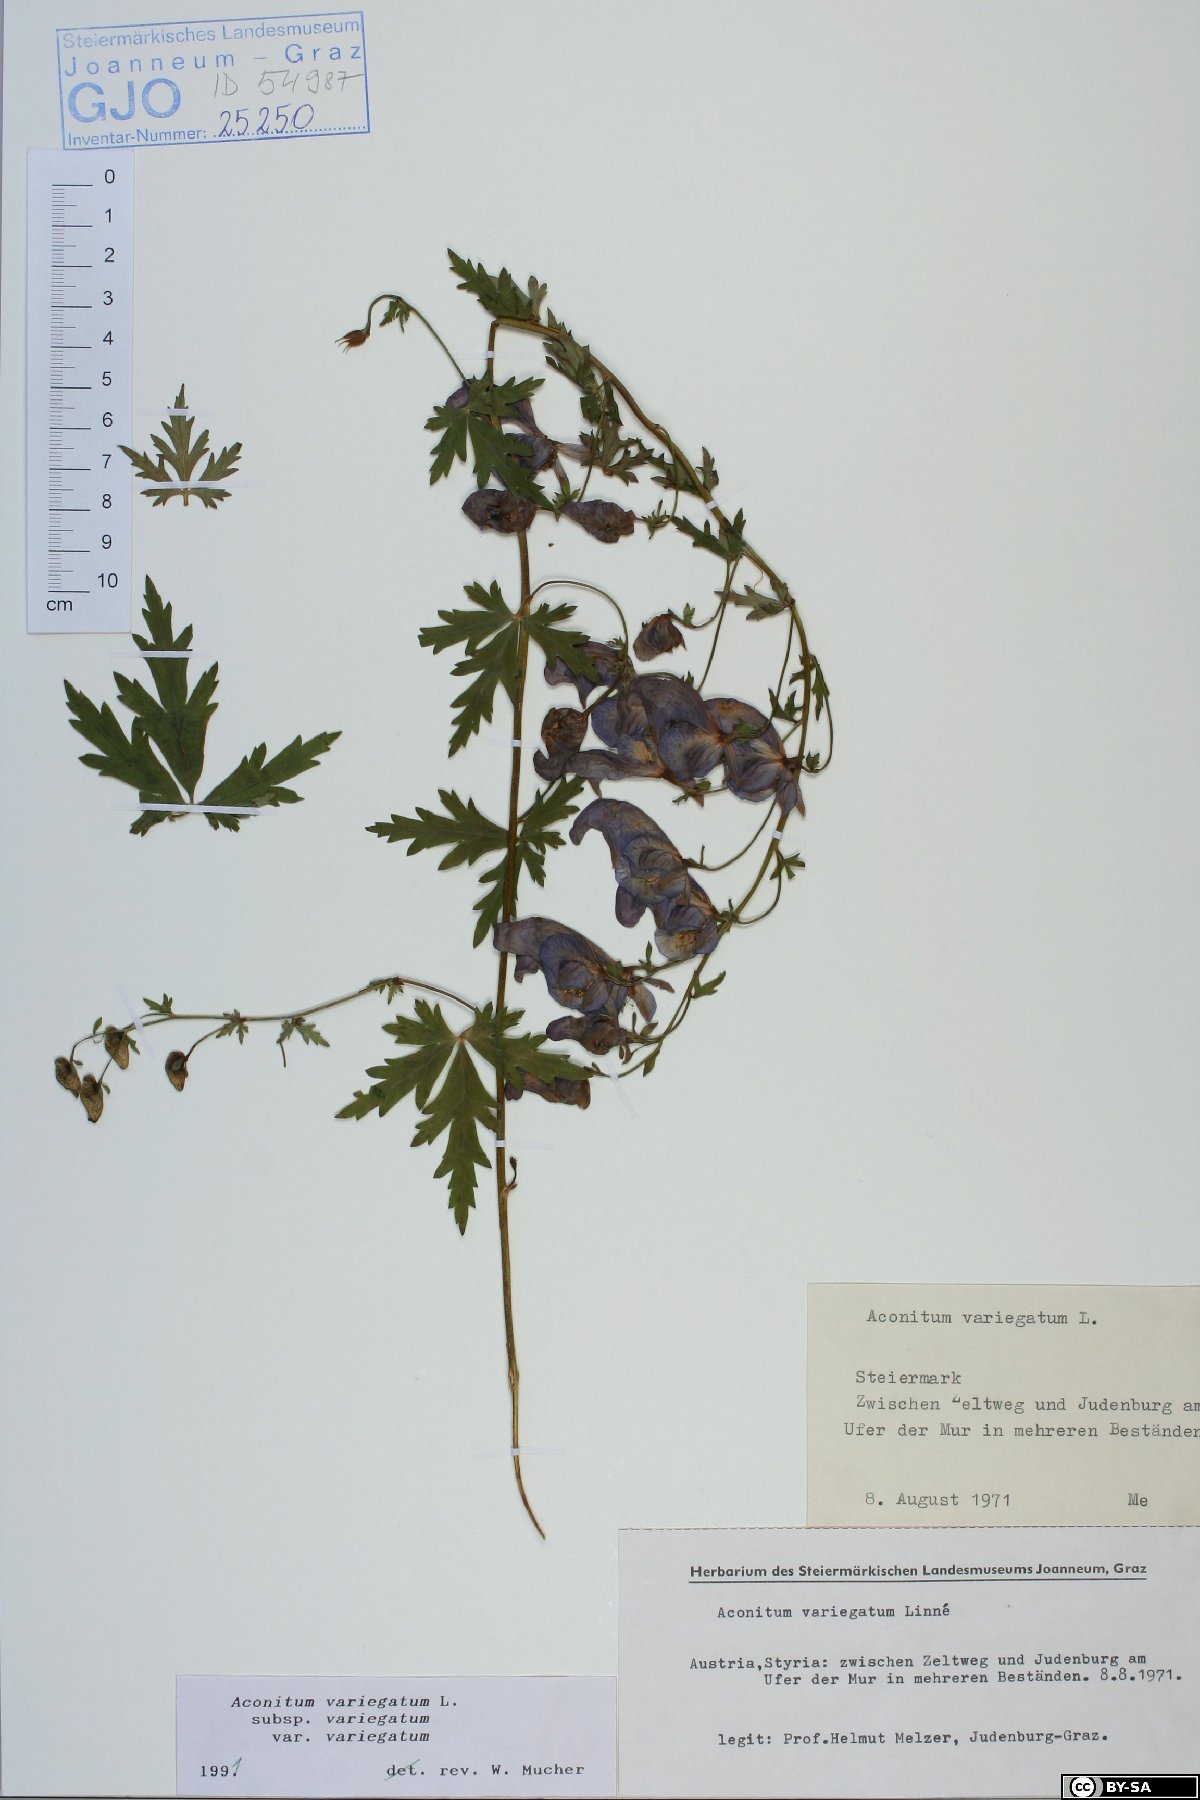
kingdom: Plantae
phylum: Tracheophyta
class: Magnoliopsida
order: Ranunculales
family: Ranunculaceae
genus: Aconitum
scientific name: Aconitum variegatum
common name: Manchurian monkshood
